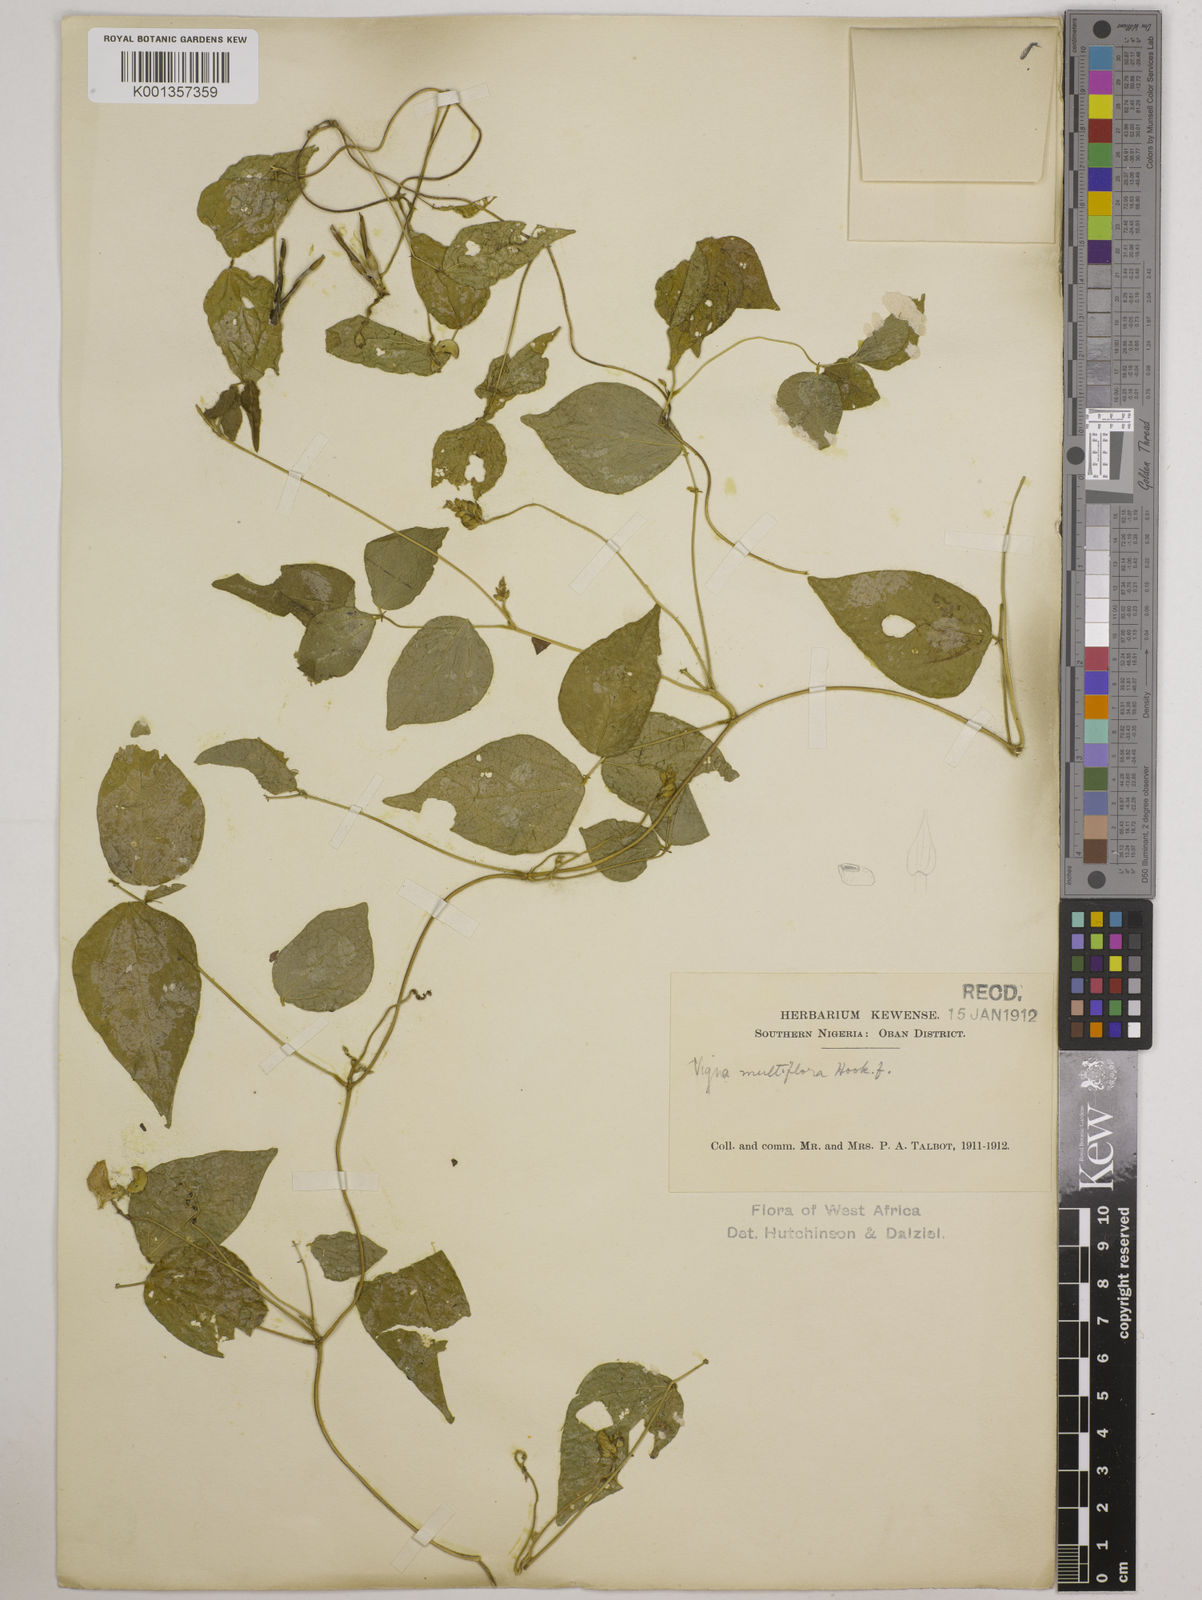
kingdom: Plantae
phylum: Tracheophyta
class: Magnoliopsida
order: Fabales
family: Fabaceae
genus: Vigna
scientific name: Vigna gracilis
